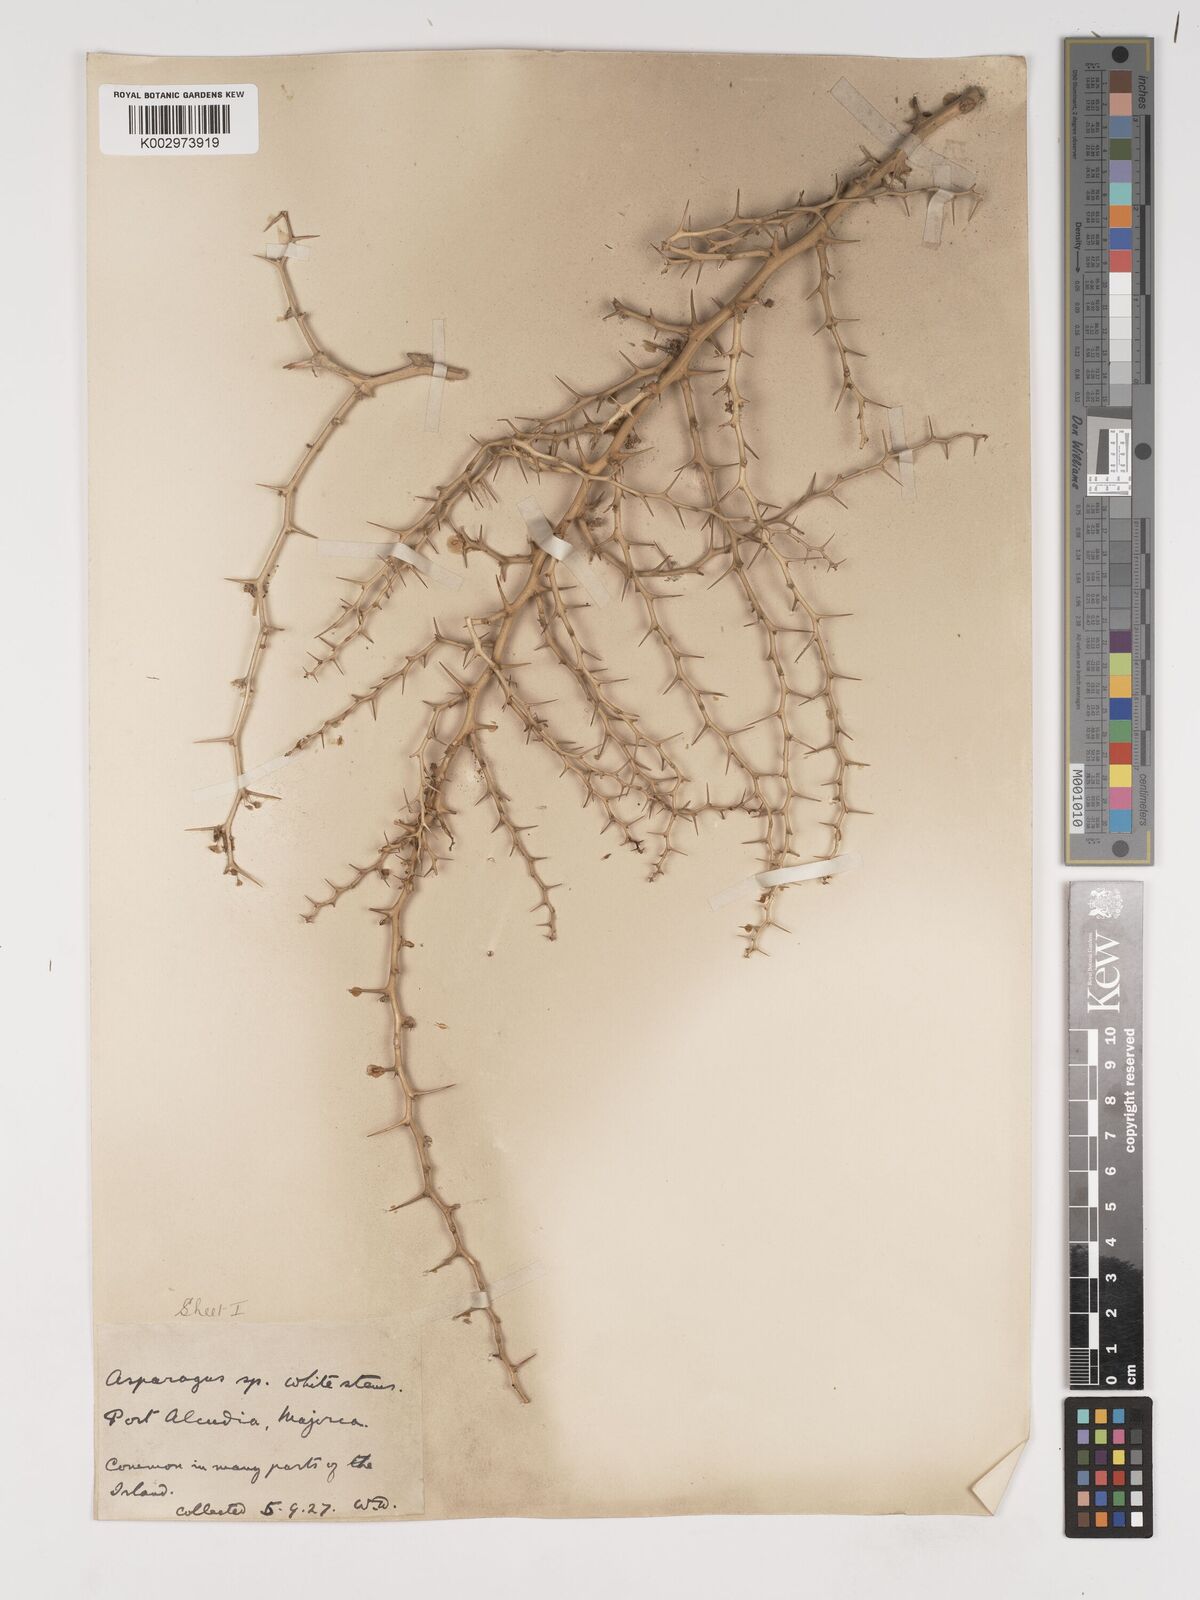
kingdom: Plantae
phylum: Tracheophyta
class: Liliopsida
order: Asparagales
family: Asparagaceae
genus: Asparagus
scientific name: Asparagus albus
